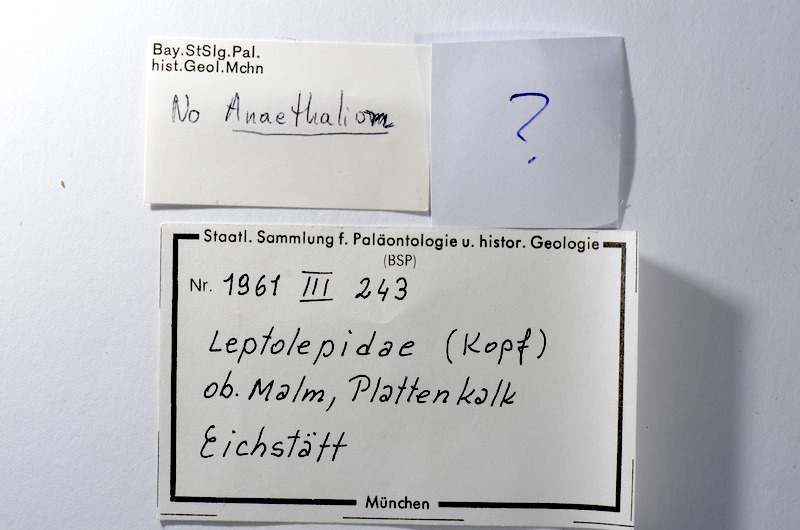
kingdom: Animalia
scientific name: Animalia
